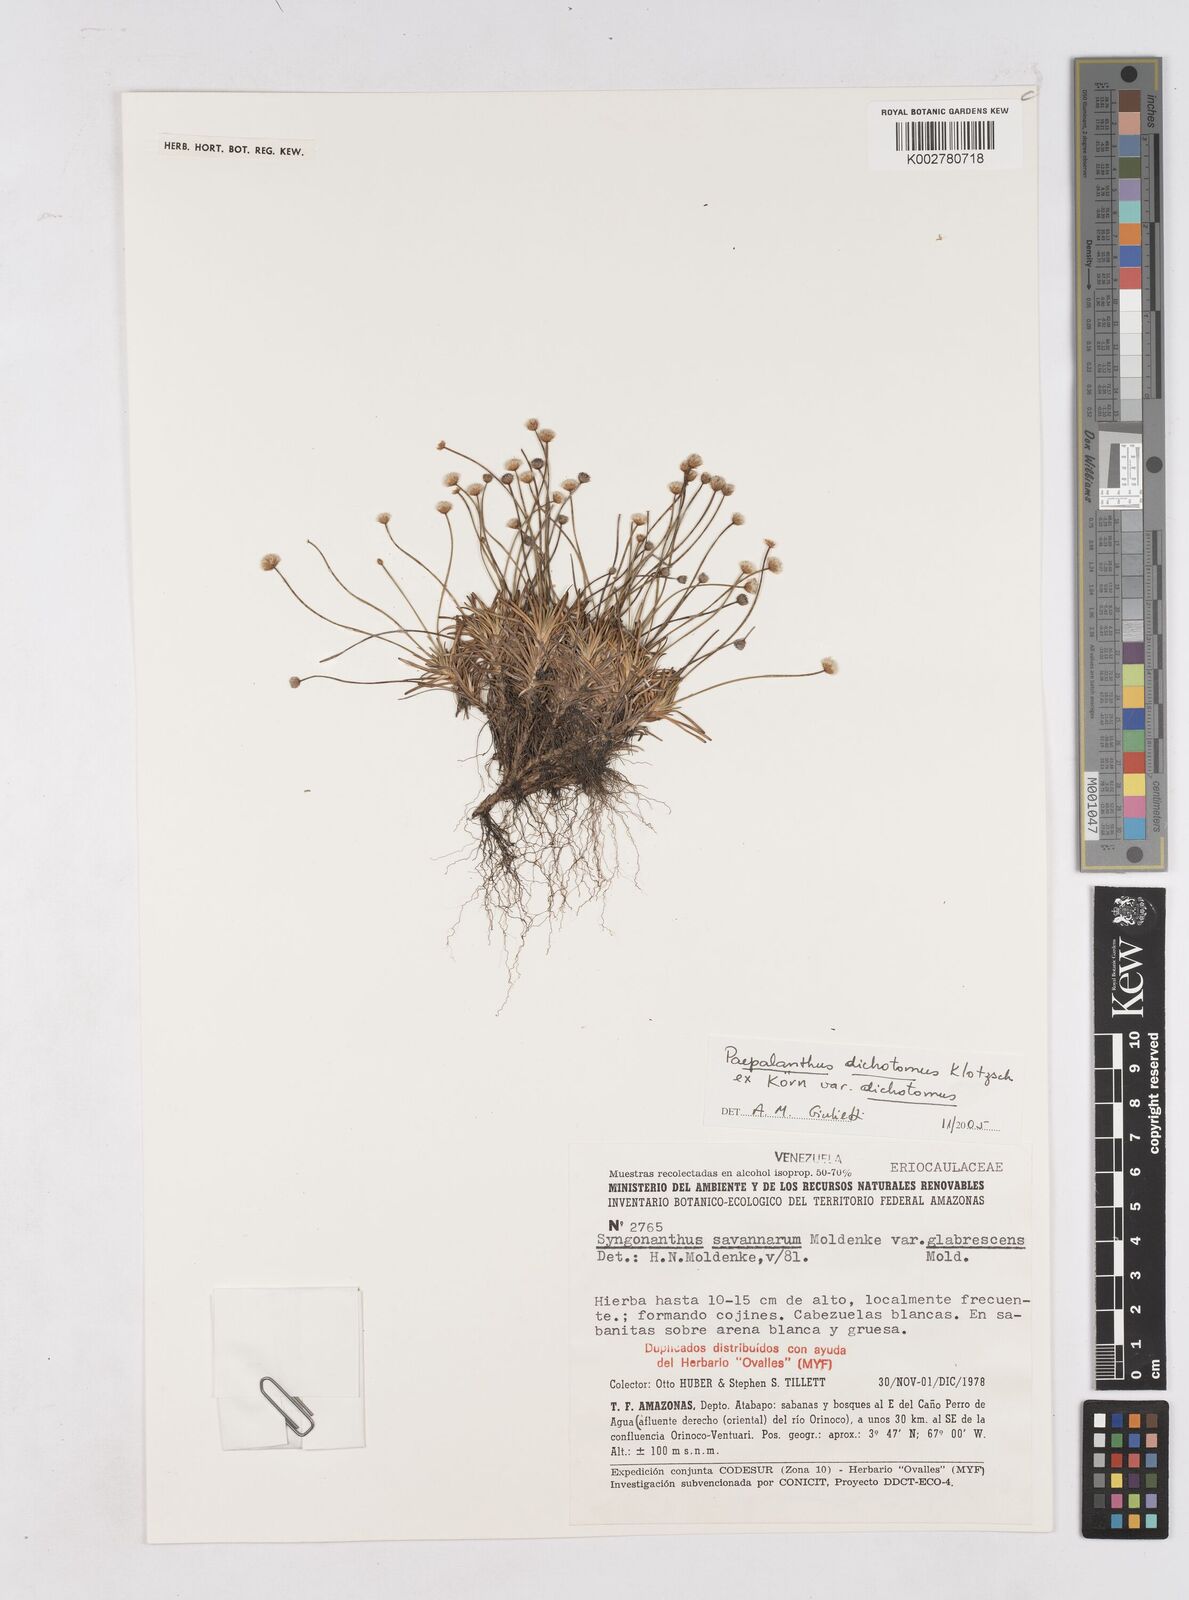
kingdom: Plantae
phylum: Tracheophyta
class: Liliopsida
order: Poales
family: Eriocaulaceae
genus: Paepalanthus
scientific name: Paepalanthus dichotomus
